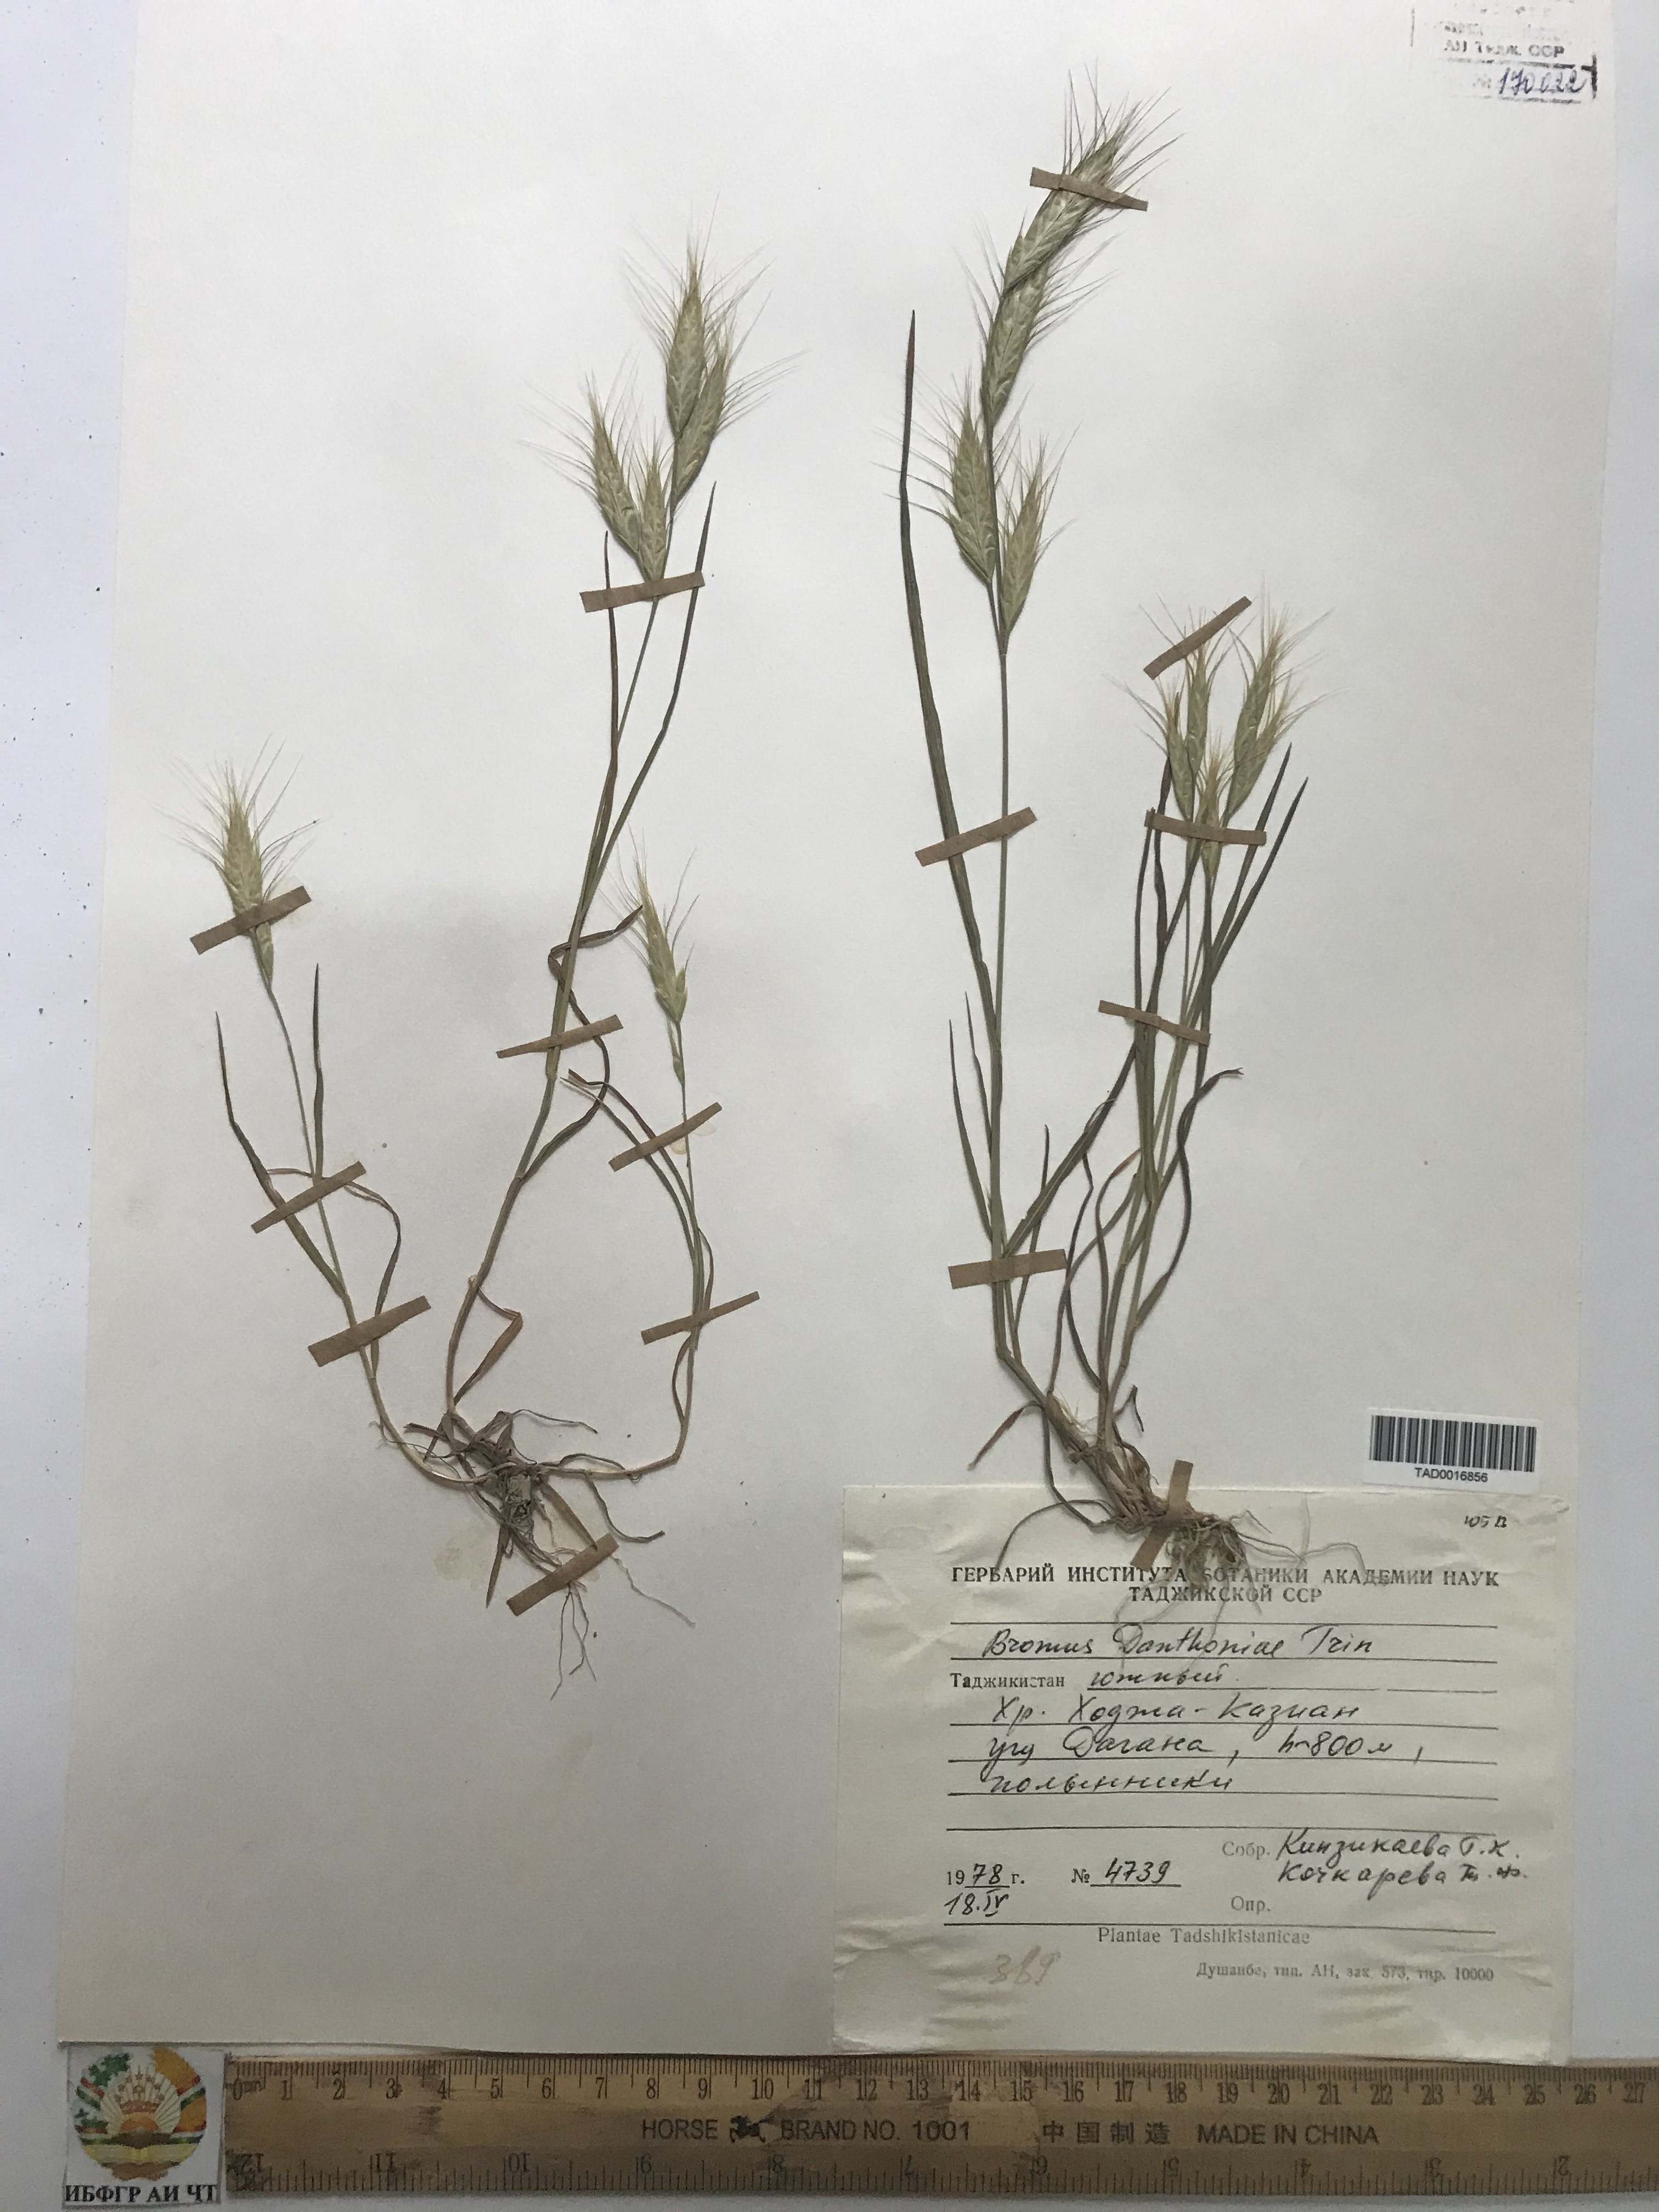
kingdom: Plantae
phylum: Tracheophyta
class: Liliopsida
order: Poales
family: Poaceae
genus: Bromus
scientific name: Bromus danthoniae
